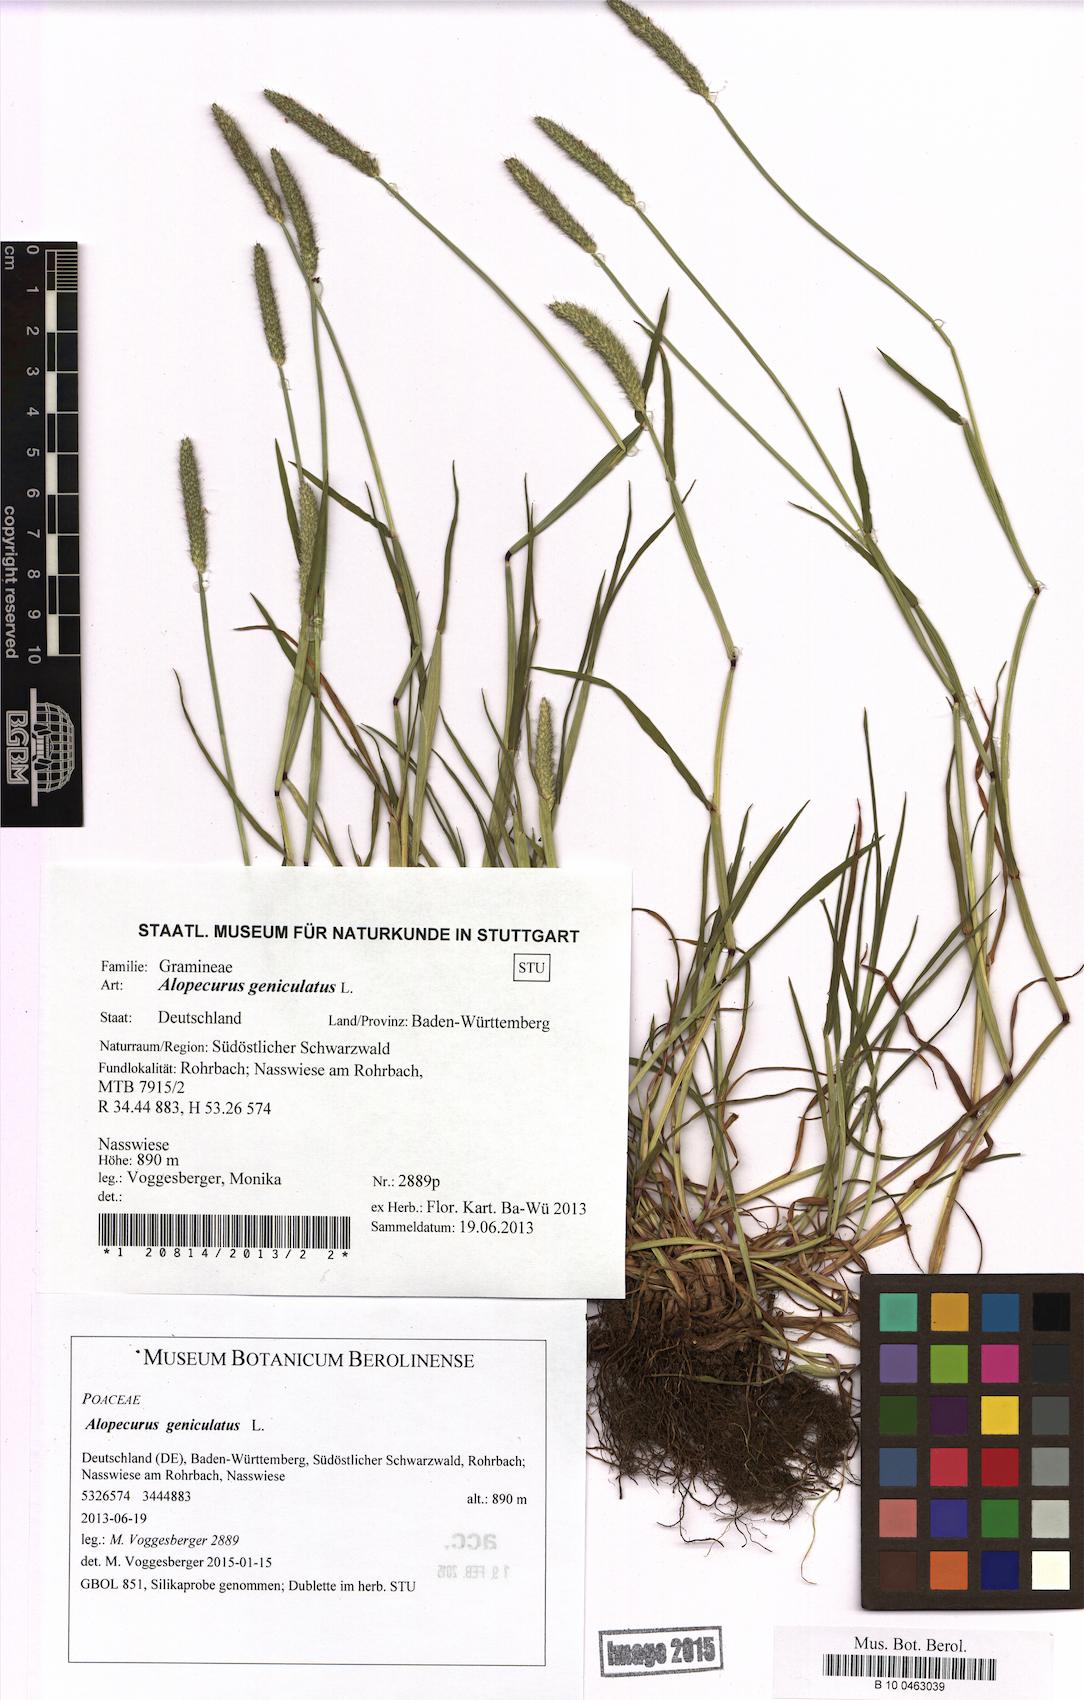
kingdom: Plantae
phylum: Tracheophyta
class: Liliopsida
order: Poales
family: Poaceae
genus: Alopecurus
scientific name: Alopecurus geniculatus
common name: Water foxtail
